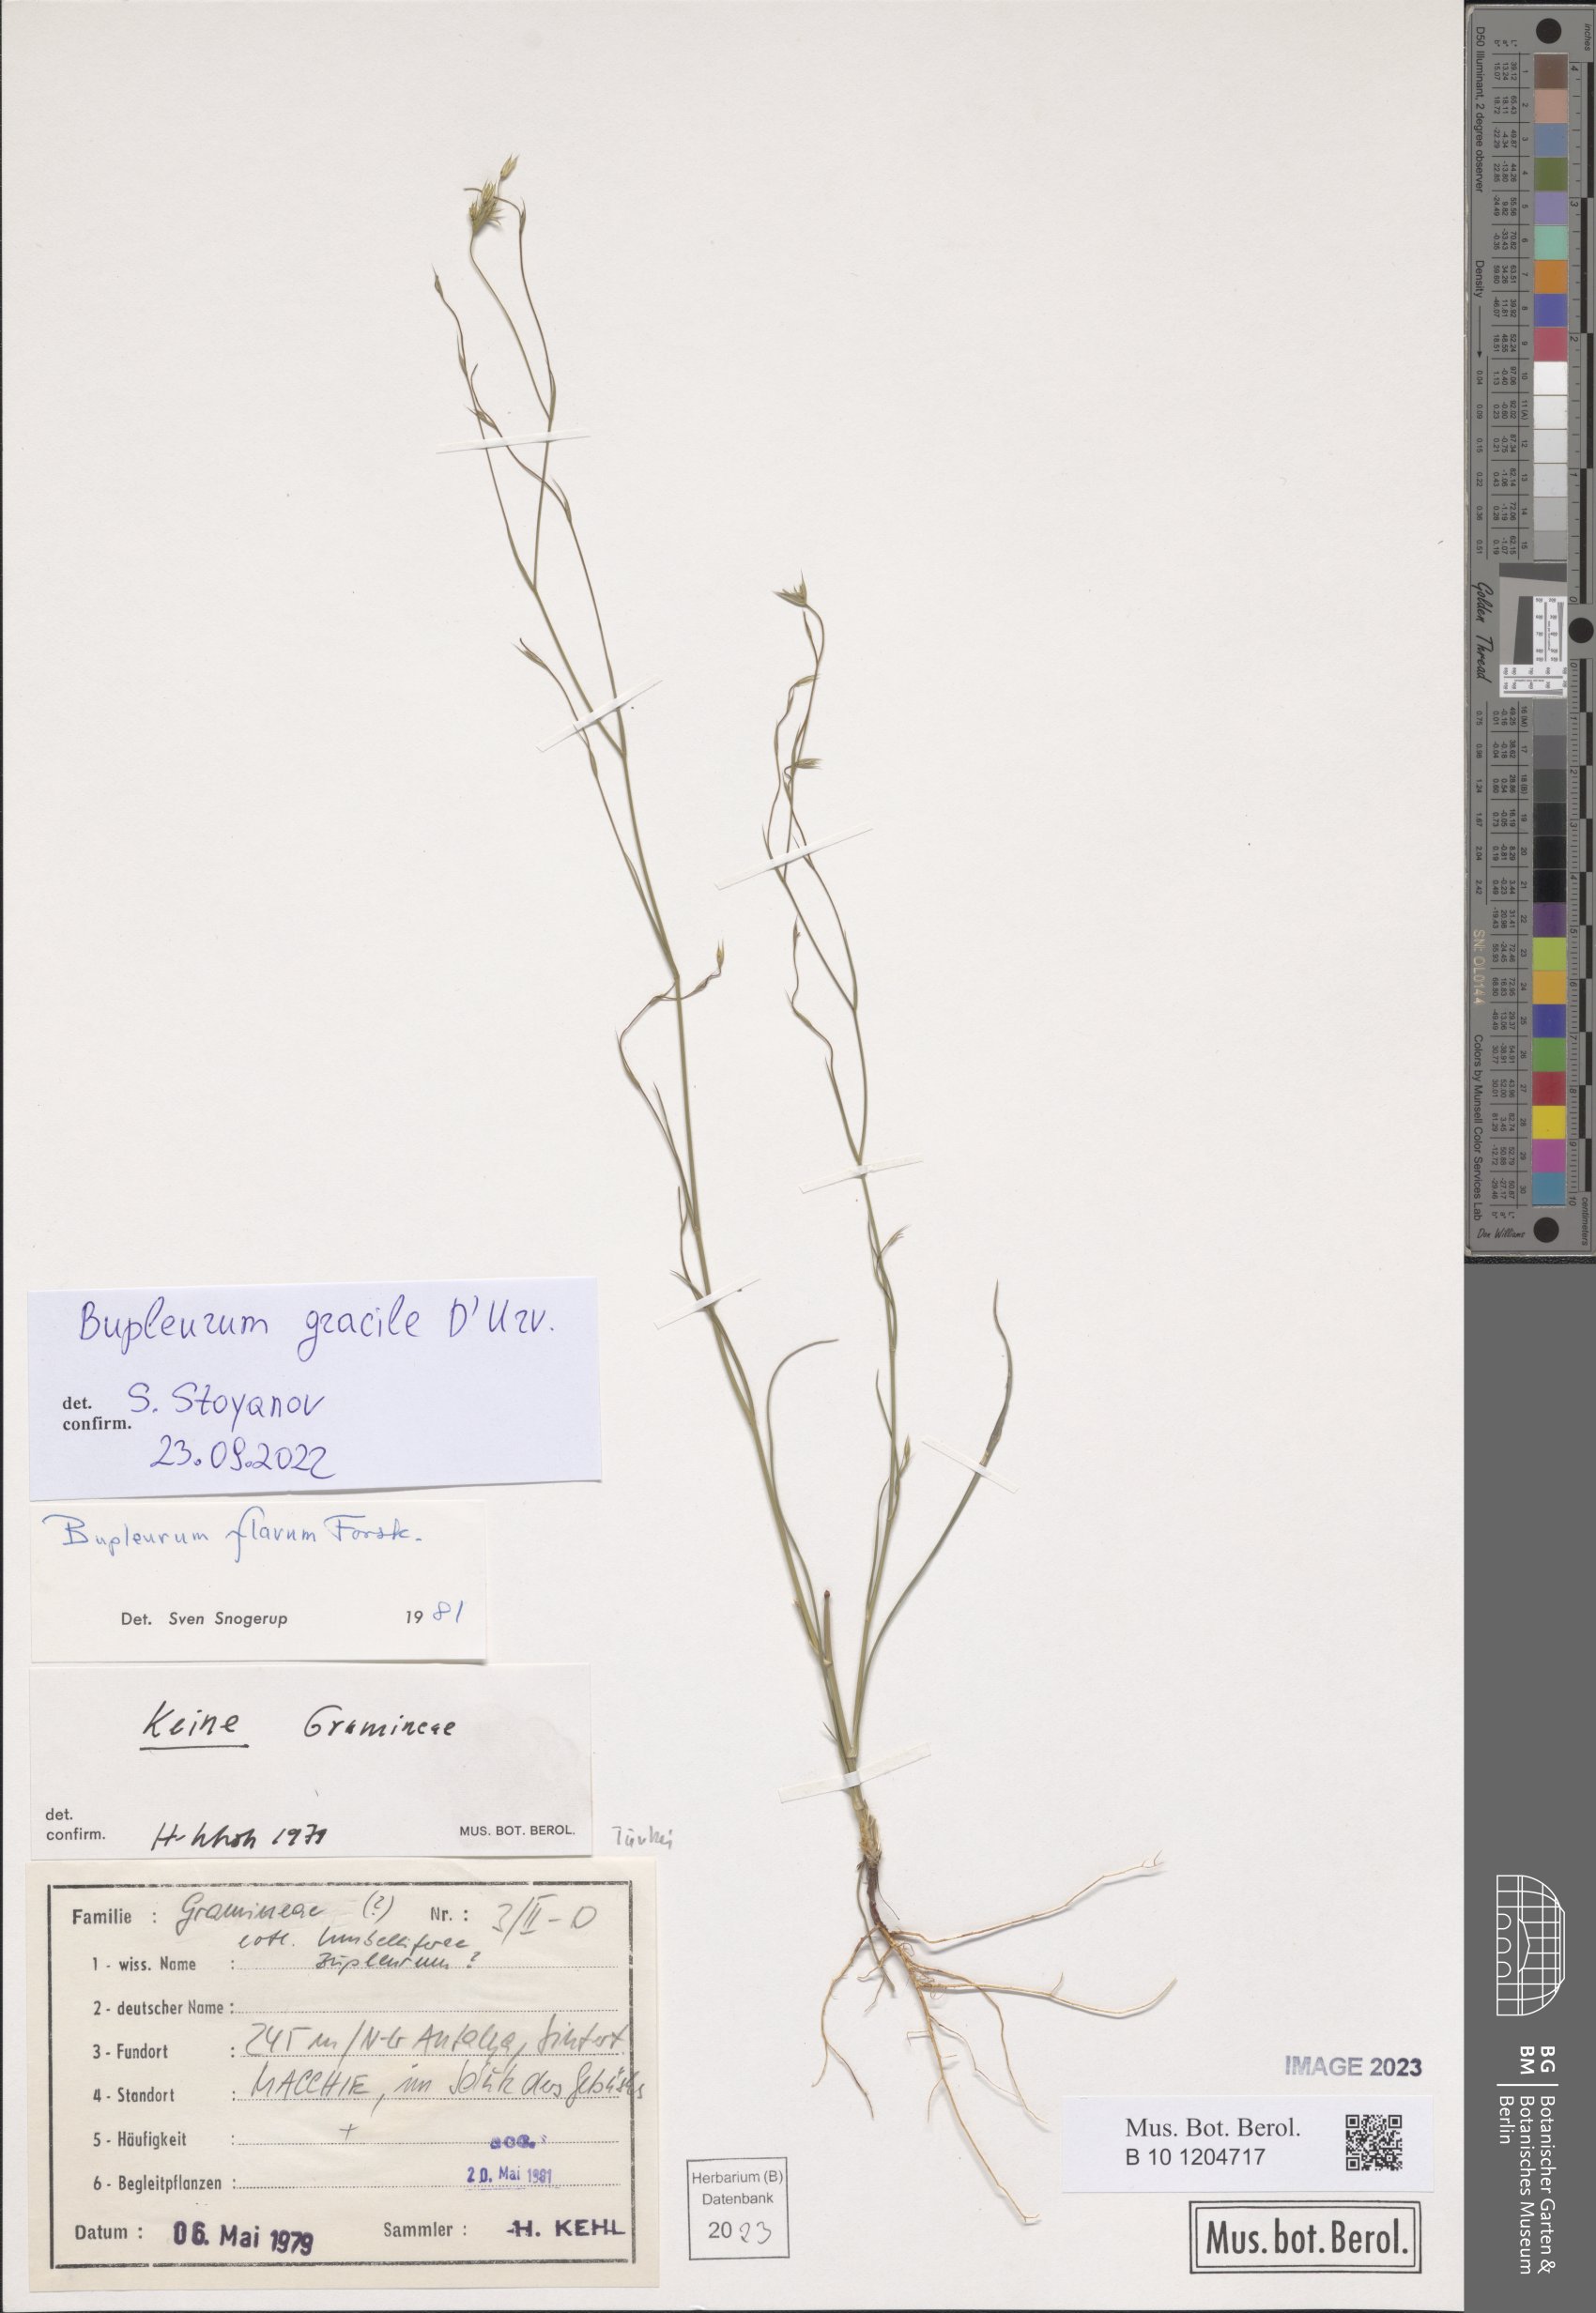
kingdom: Plantae
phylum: Tracheophyta
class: Magnoliopsida
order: Apiales
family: Apiaceae
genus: Bupleurum
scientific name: Bupleurum gracile
